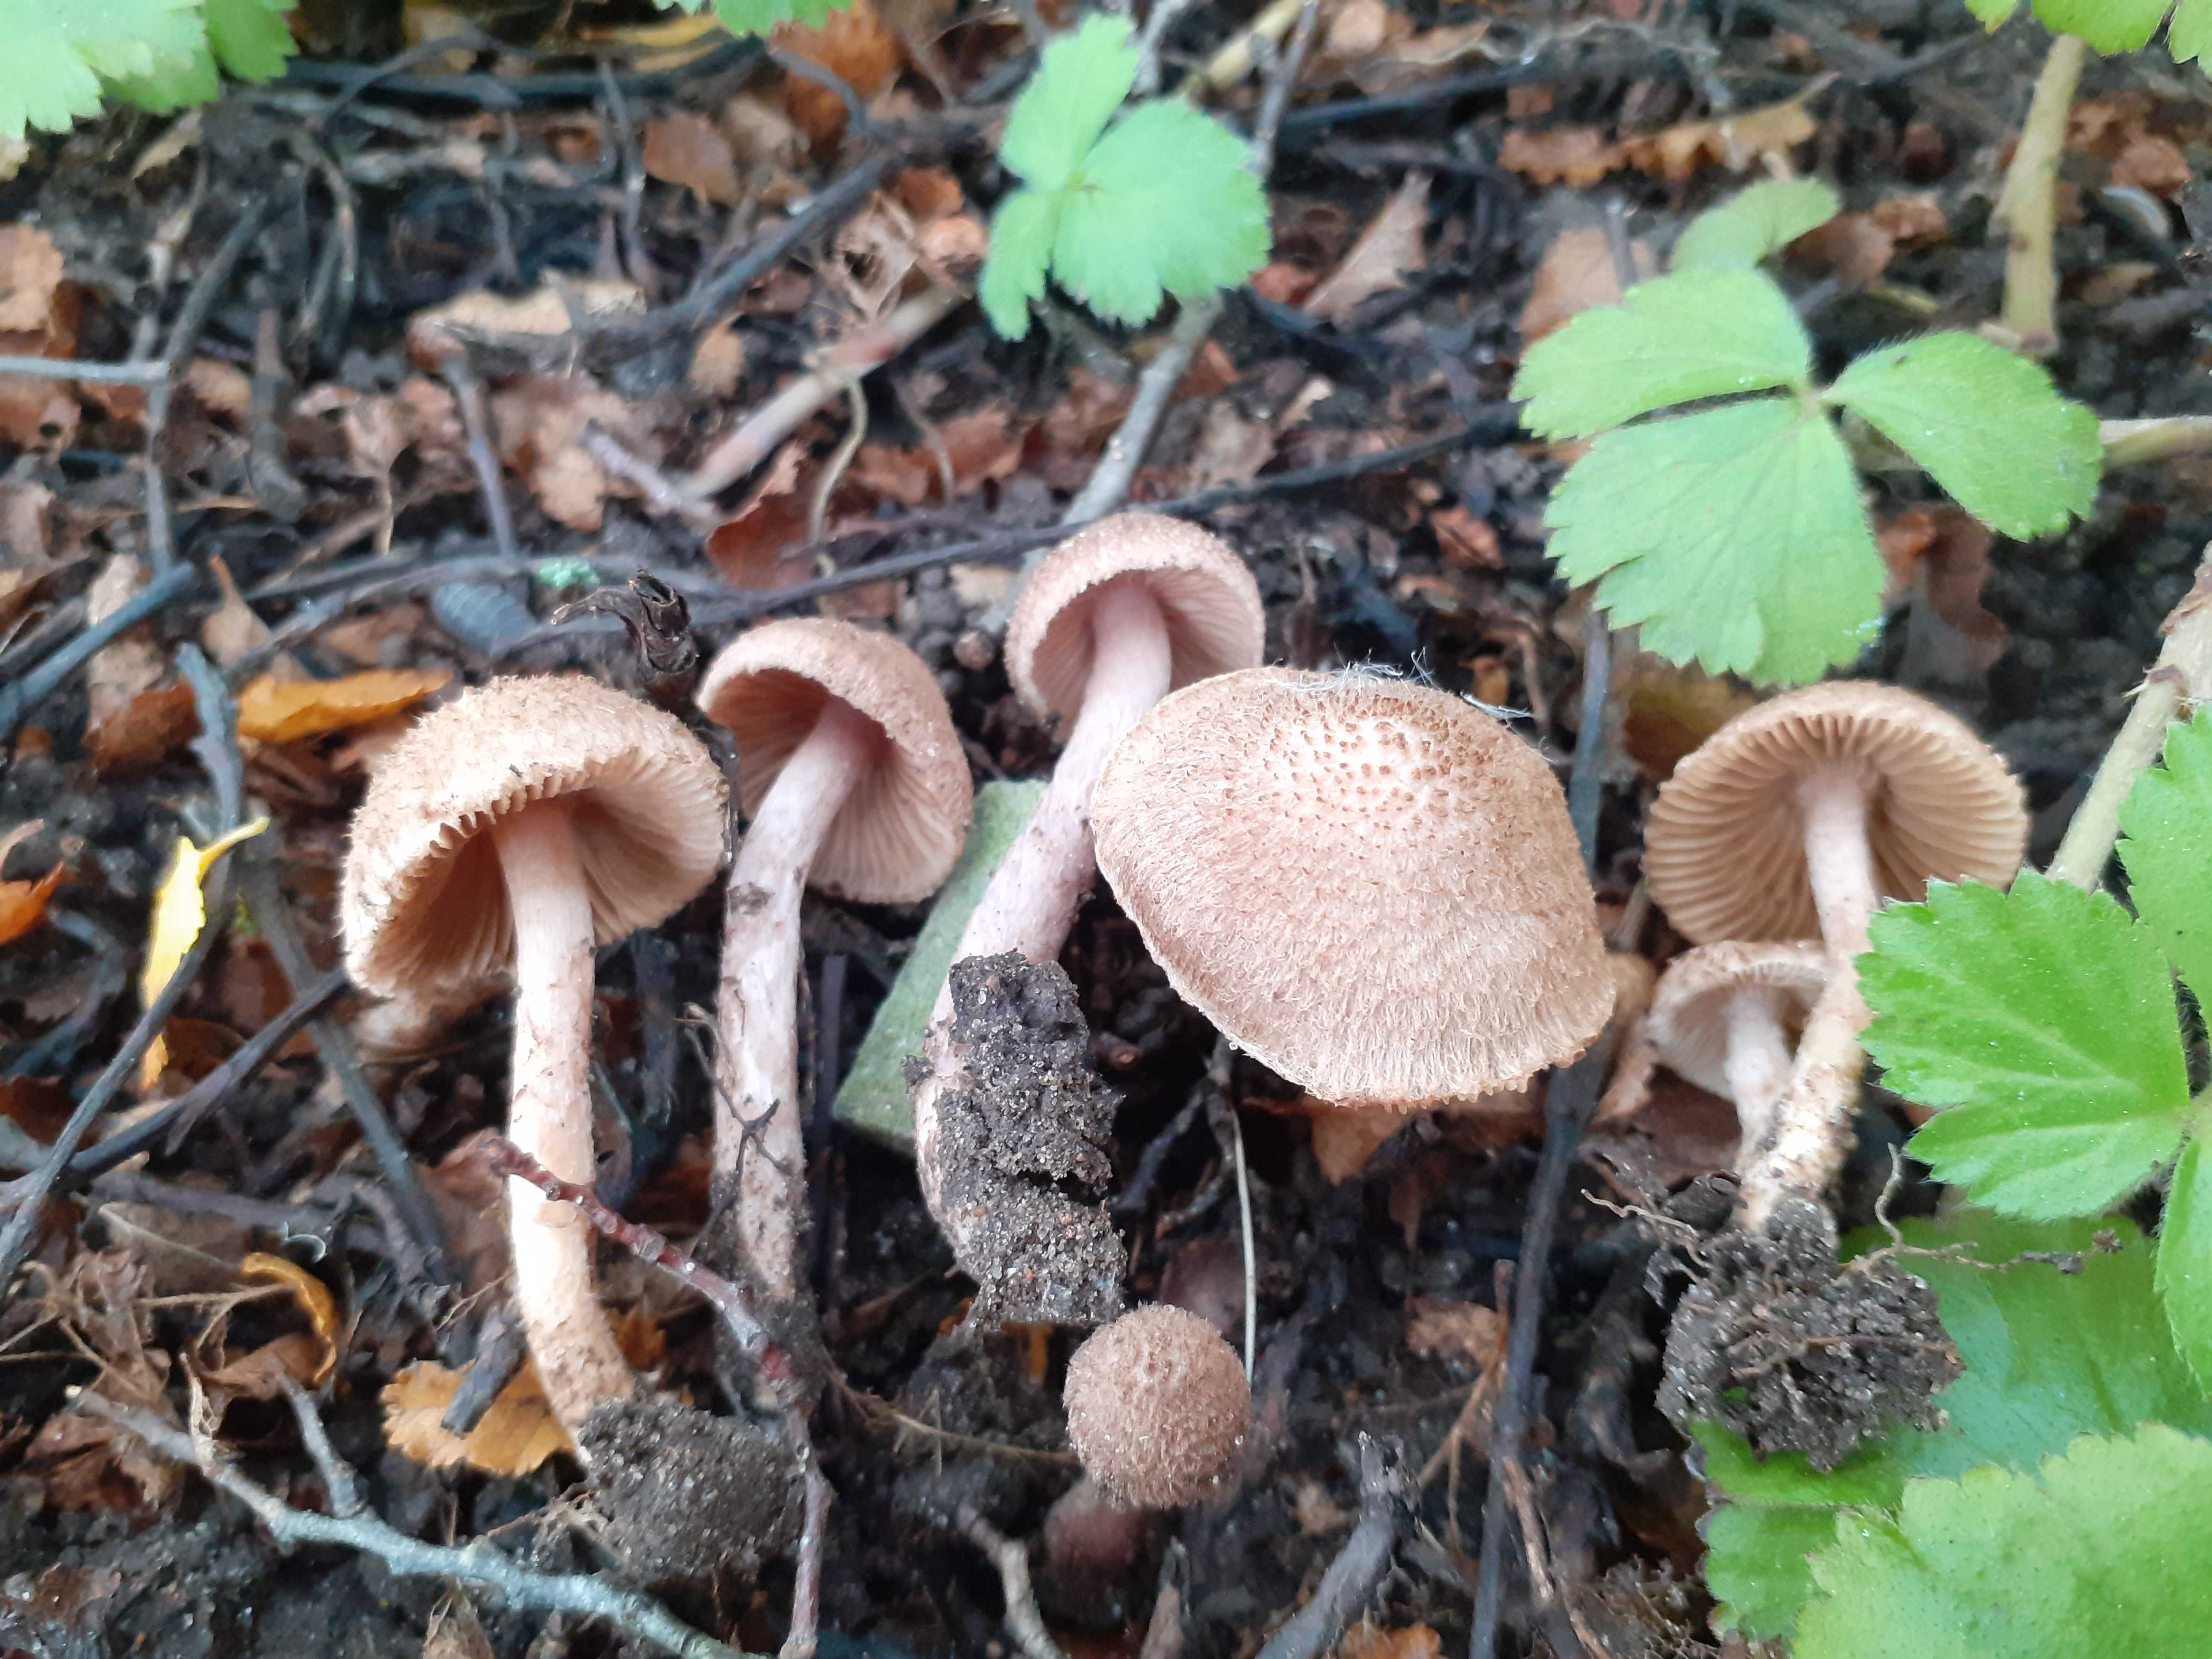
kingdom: Fungi
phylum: Basidiomycota
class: Agaricomycetes
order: Agaricales
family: Inocybaceae
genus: Inocybe
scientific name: Inocybe cincinnata
